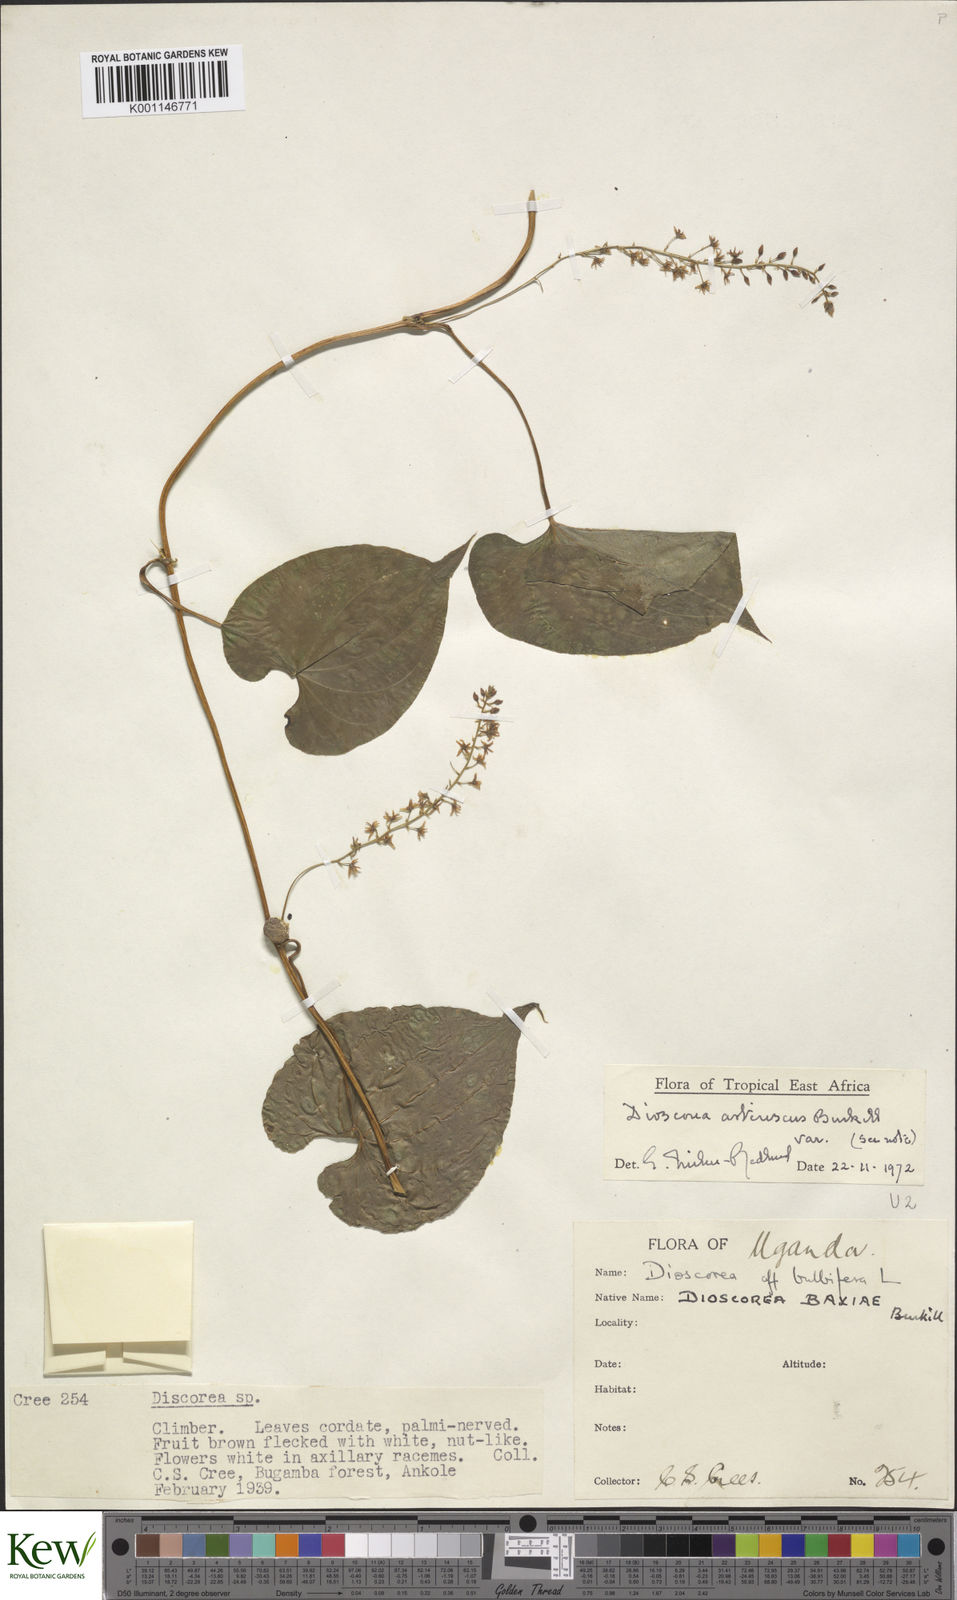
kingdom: Plantae
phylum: Tracheophyta
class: Liliopsida
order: Dioscoreales
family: Dioscoreaceae
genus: Dioscorea
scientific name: Dioscorea asteriscus
